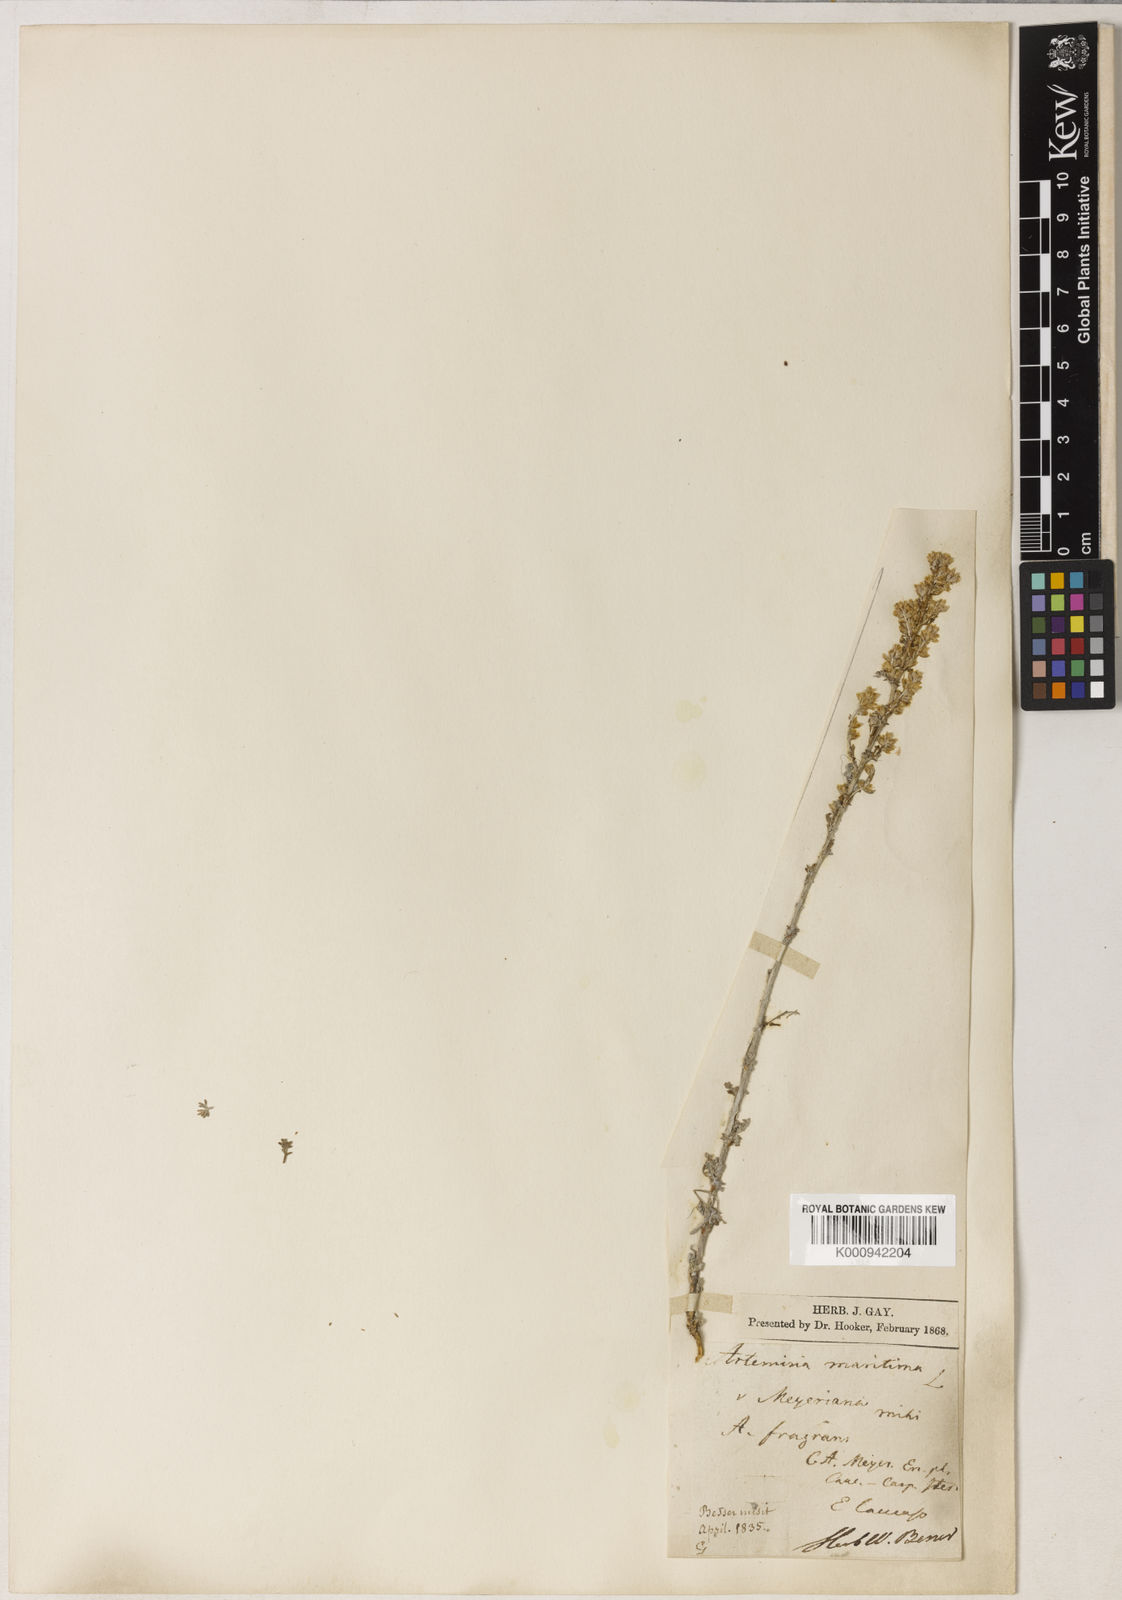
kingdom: Plantae
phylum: Tracheophyta
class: Magnoliopsida
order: Asterales
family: Asteraceae
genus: Artemisia
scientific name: Artemisia fragrans
